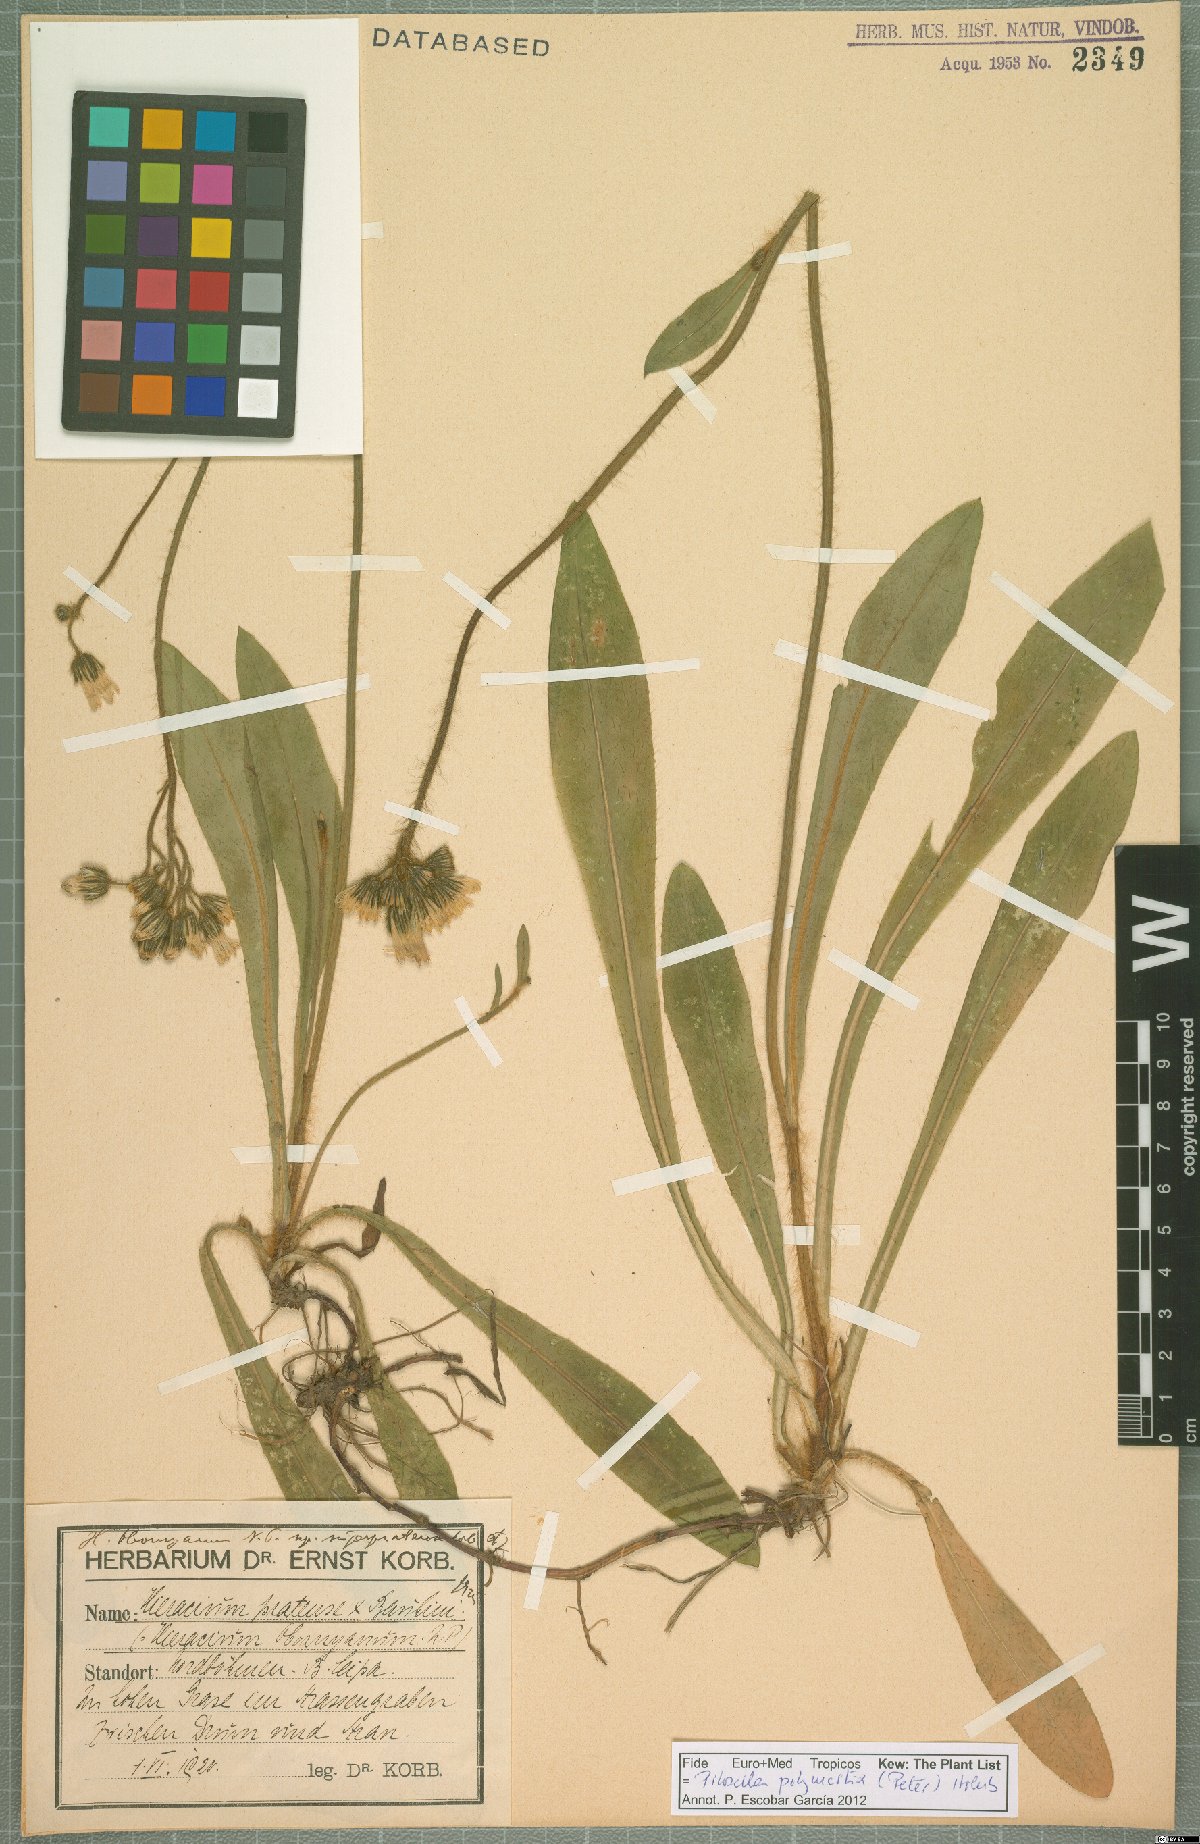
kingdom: Plantae
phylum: Tracheophyta
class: Magnoliopsida
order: Asterales
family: Asteraceae
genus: Pilosella
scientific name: Pilosella polymastix
